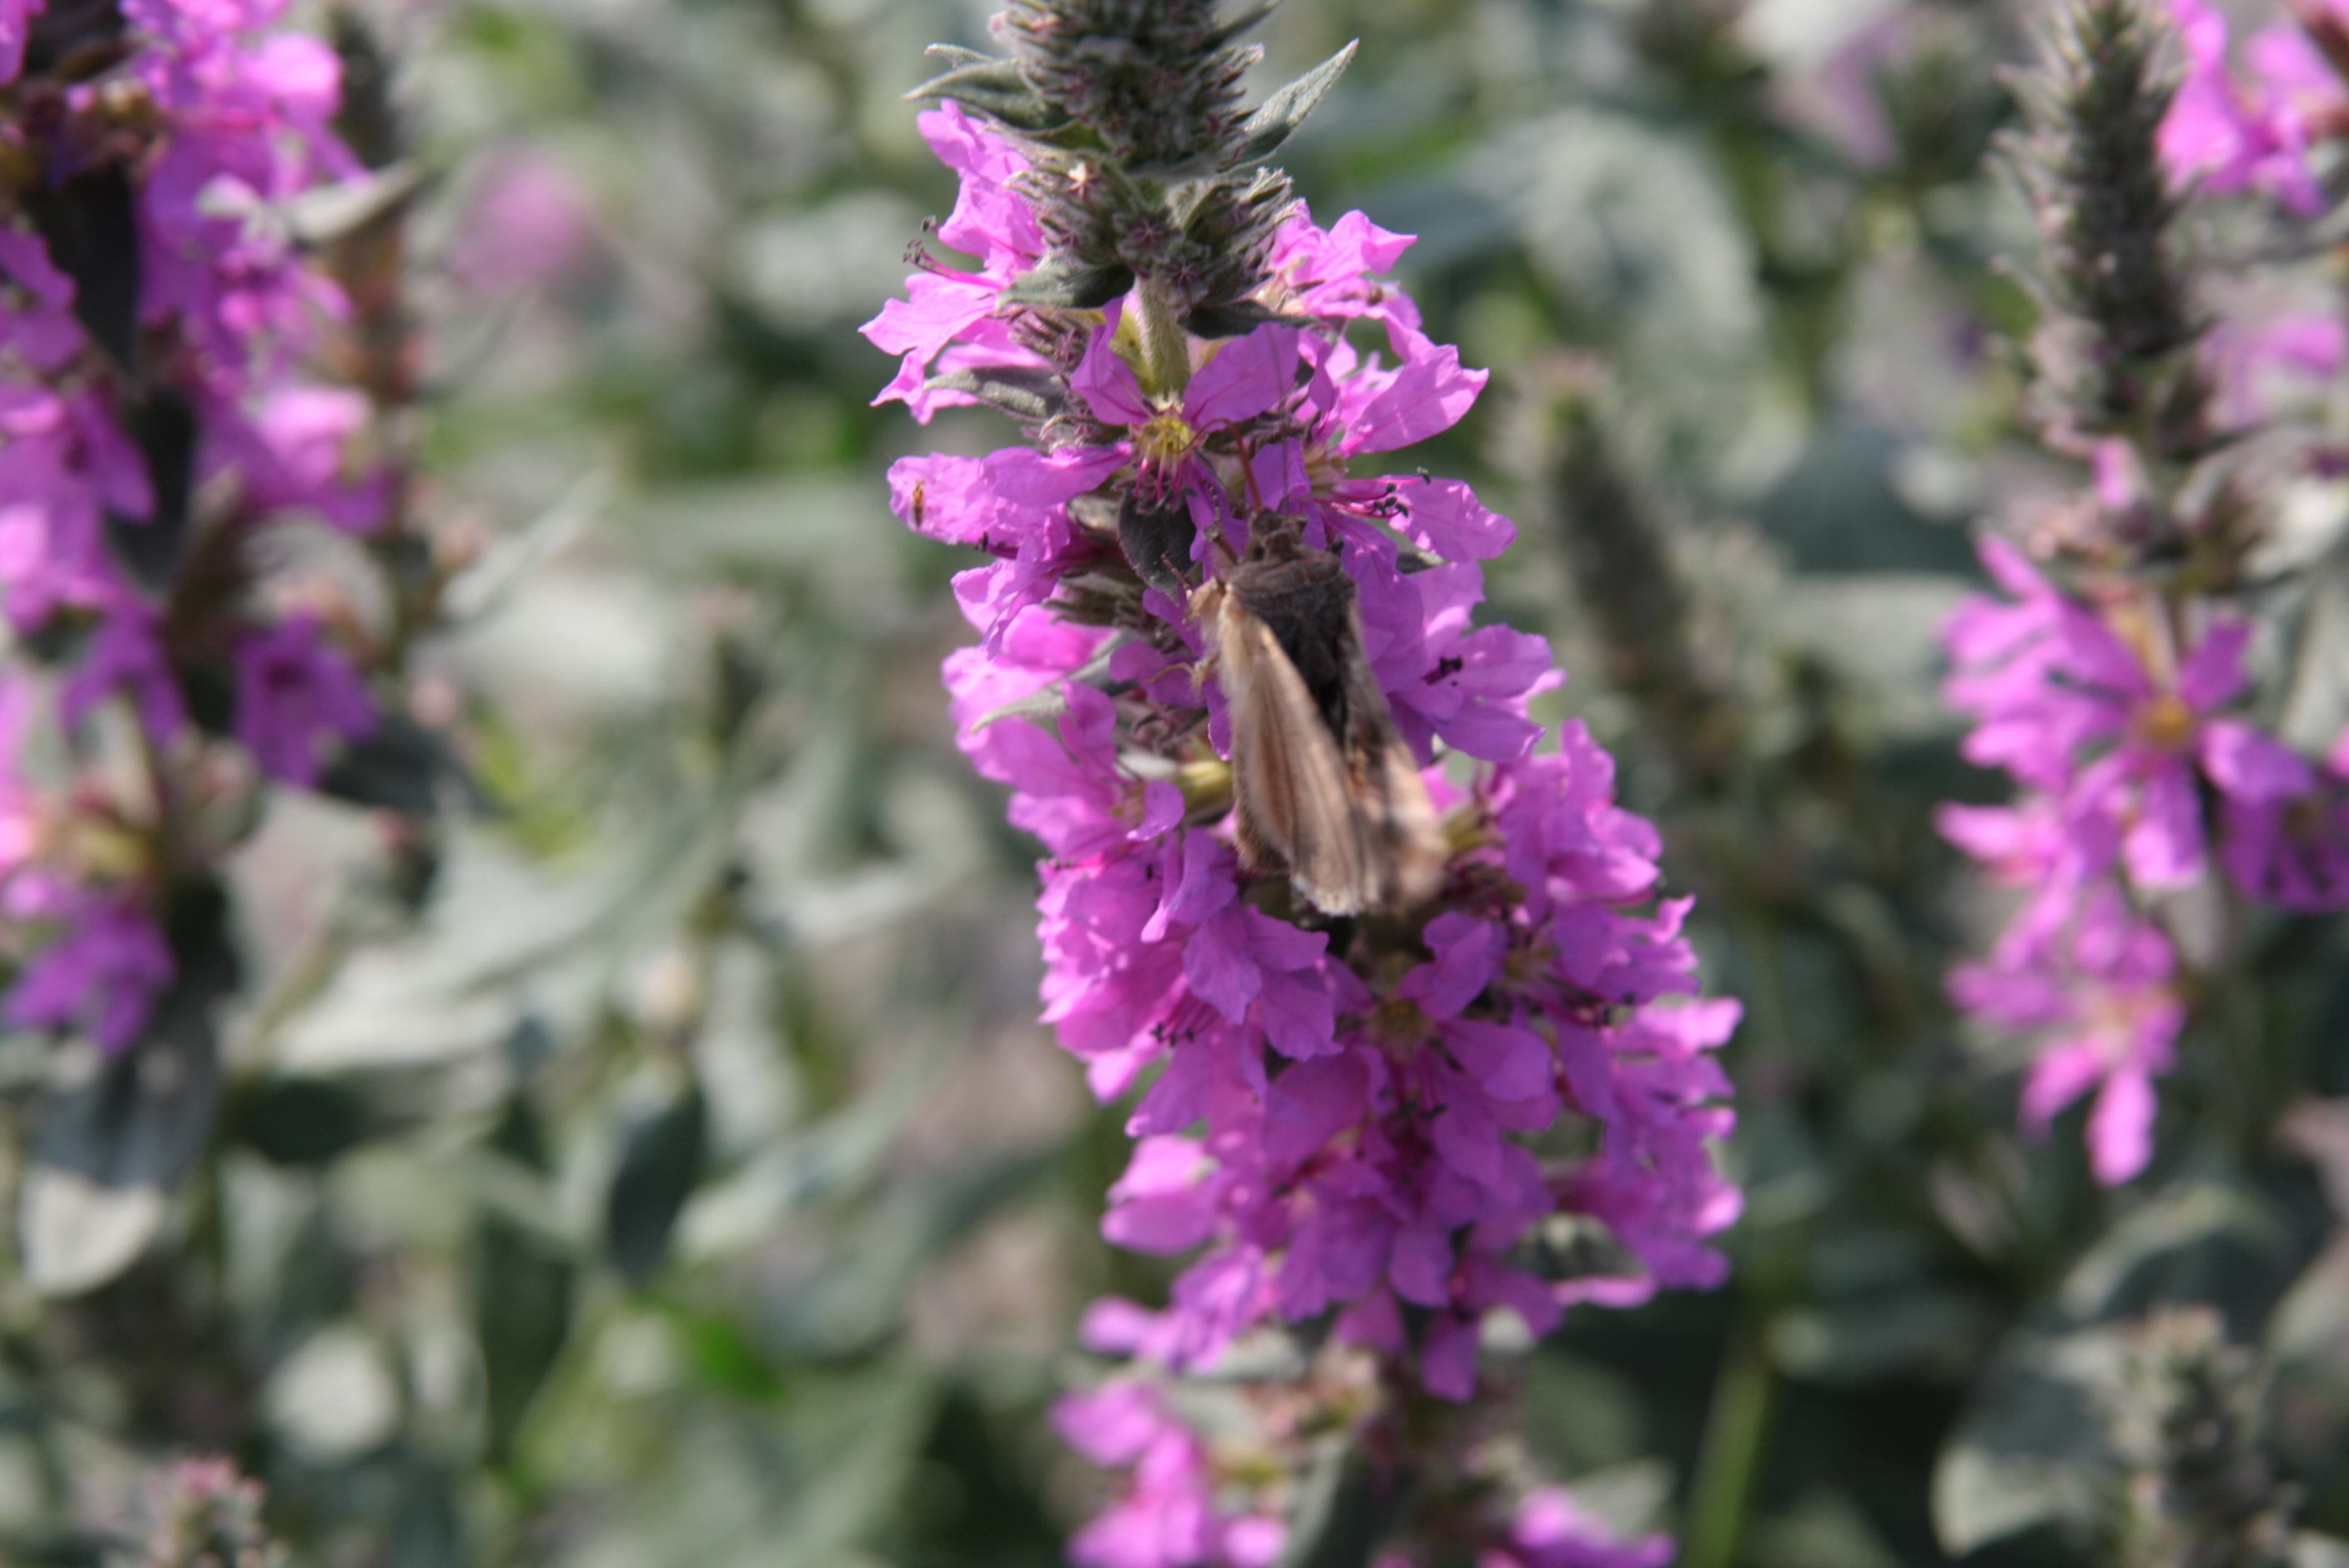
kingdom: Animalia
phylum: Arthropoda
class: Insecta
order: Lepidoptera
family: Noctuidae
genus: Autographa
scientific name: Autographa gamma
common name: Silver y
